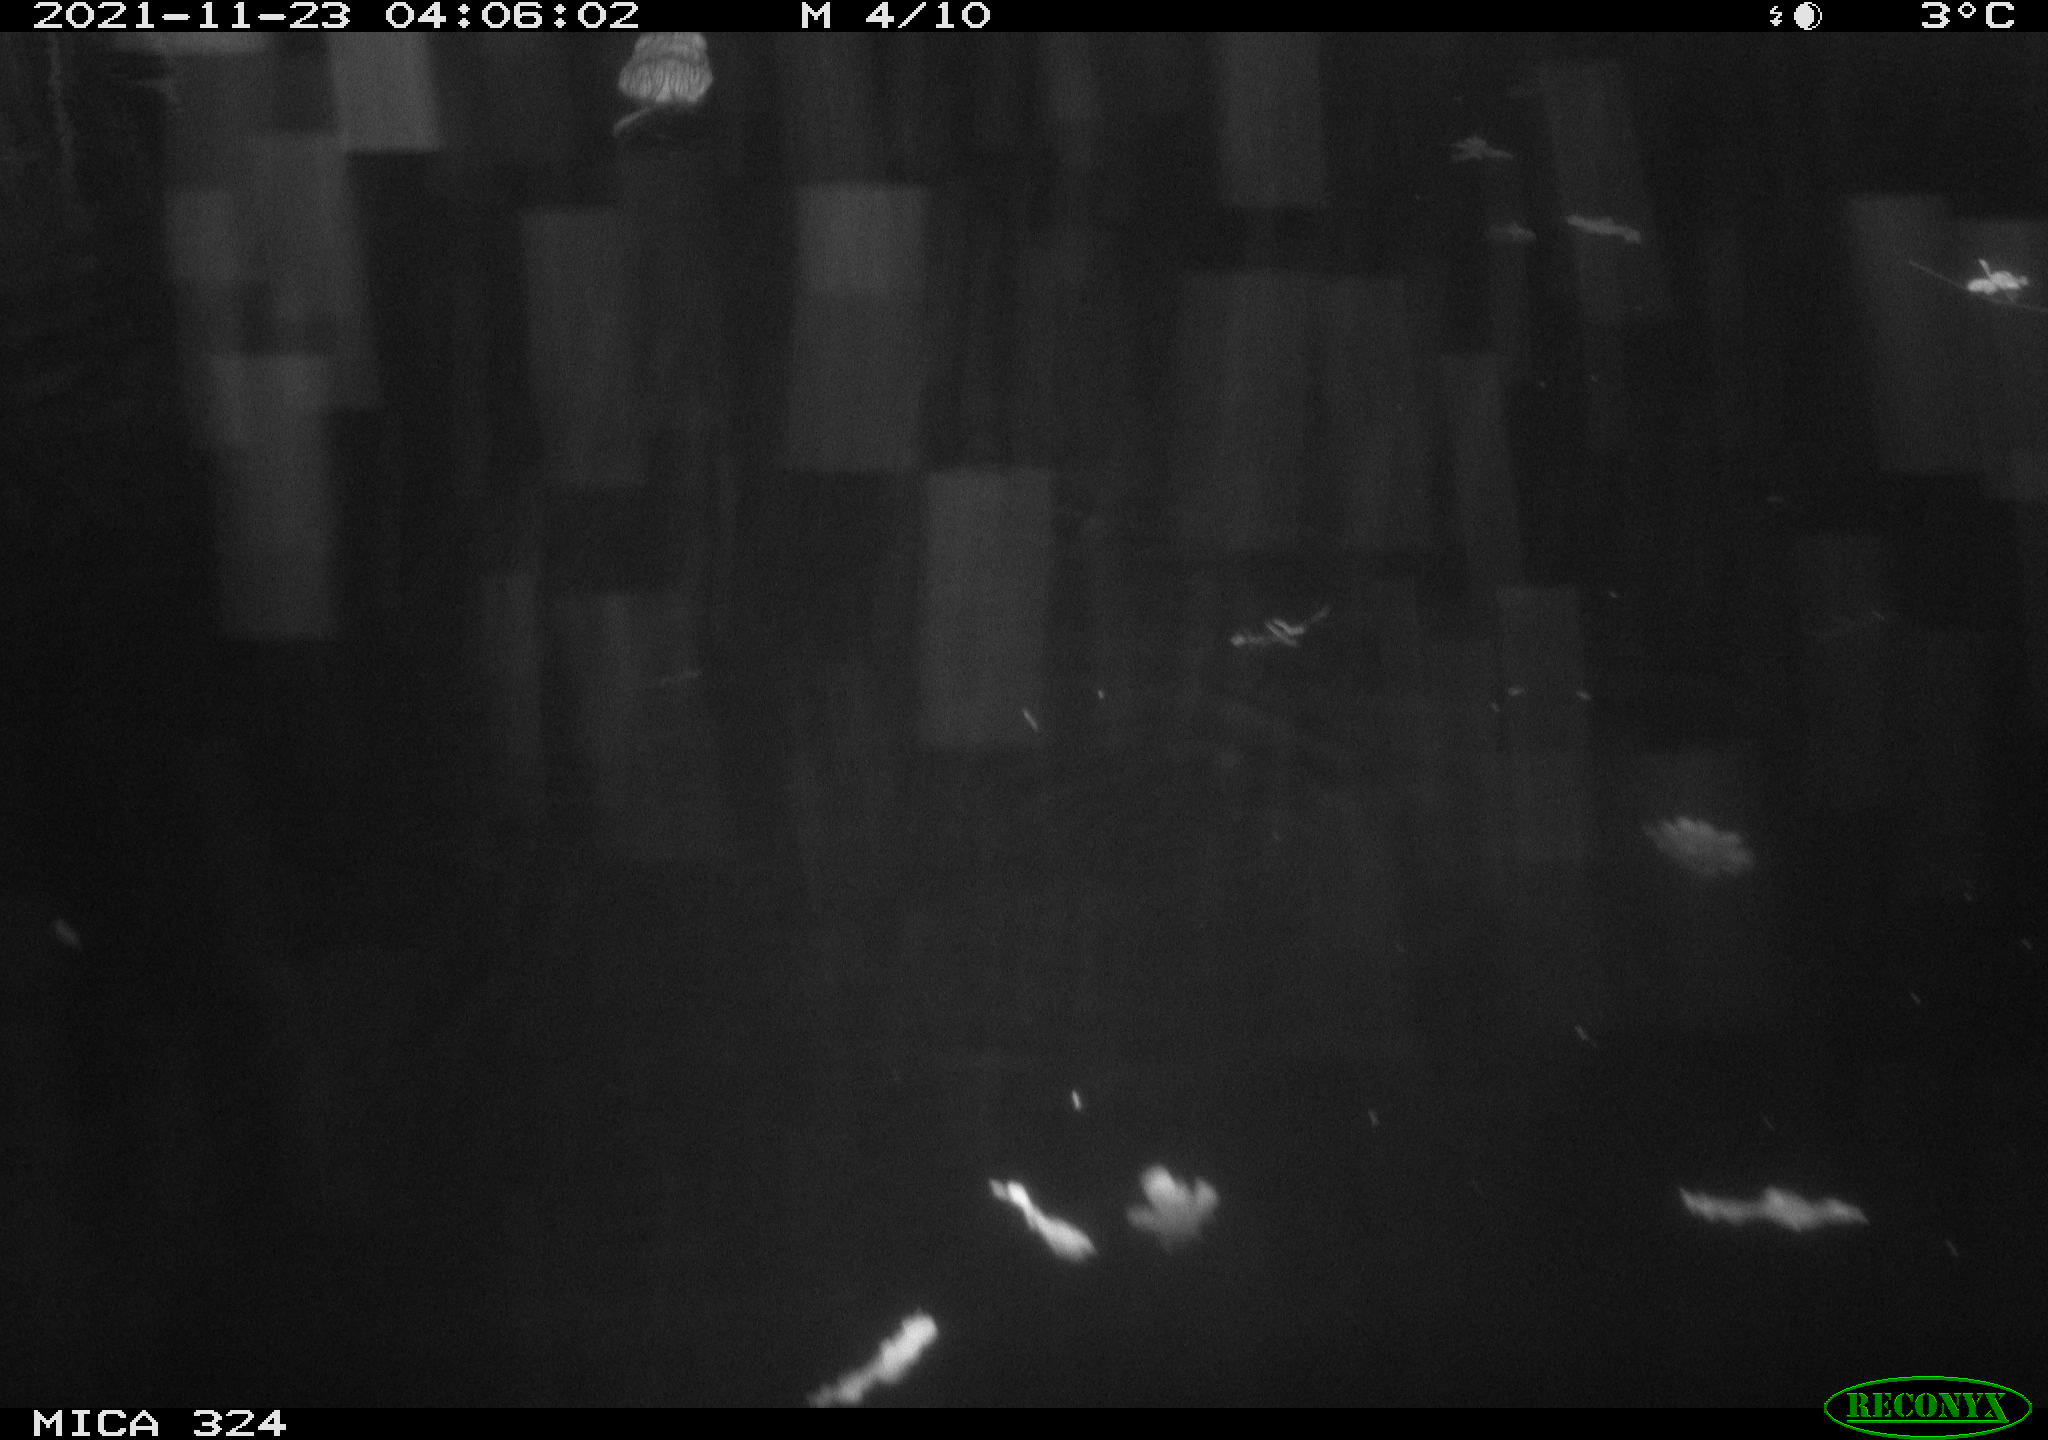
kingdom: Animalia
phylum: Chordata
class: Mammalia
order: Rodentia
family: Cricetidae
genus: Ondatra
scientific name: Ondatra zibethicus
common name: Muskrat
